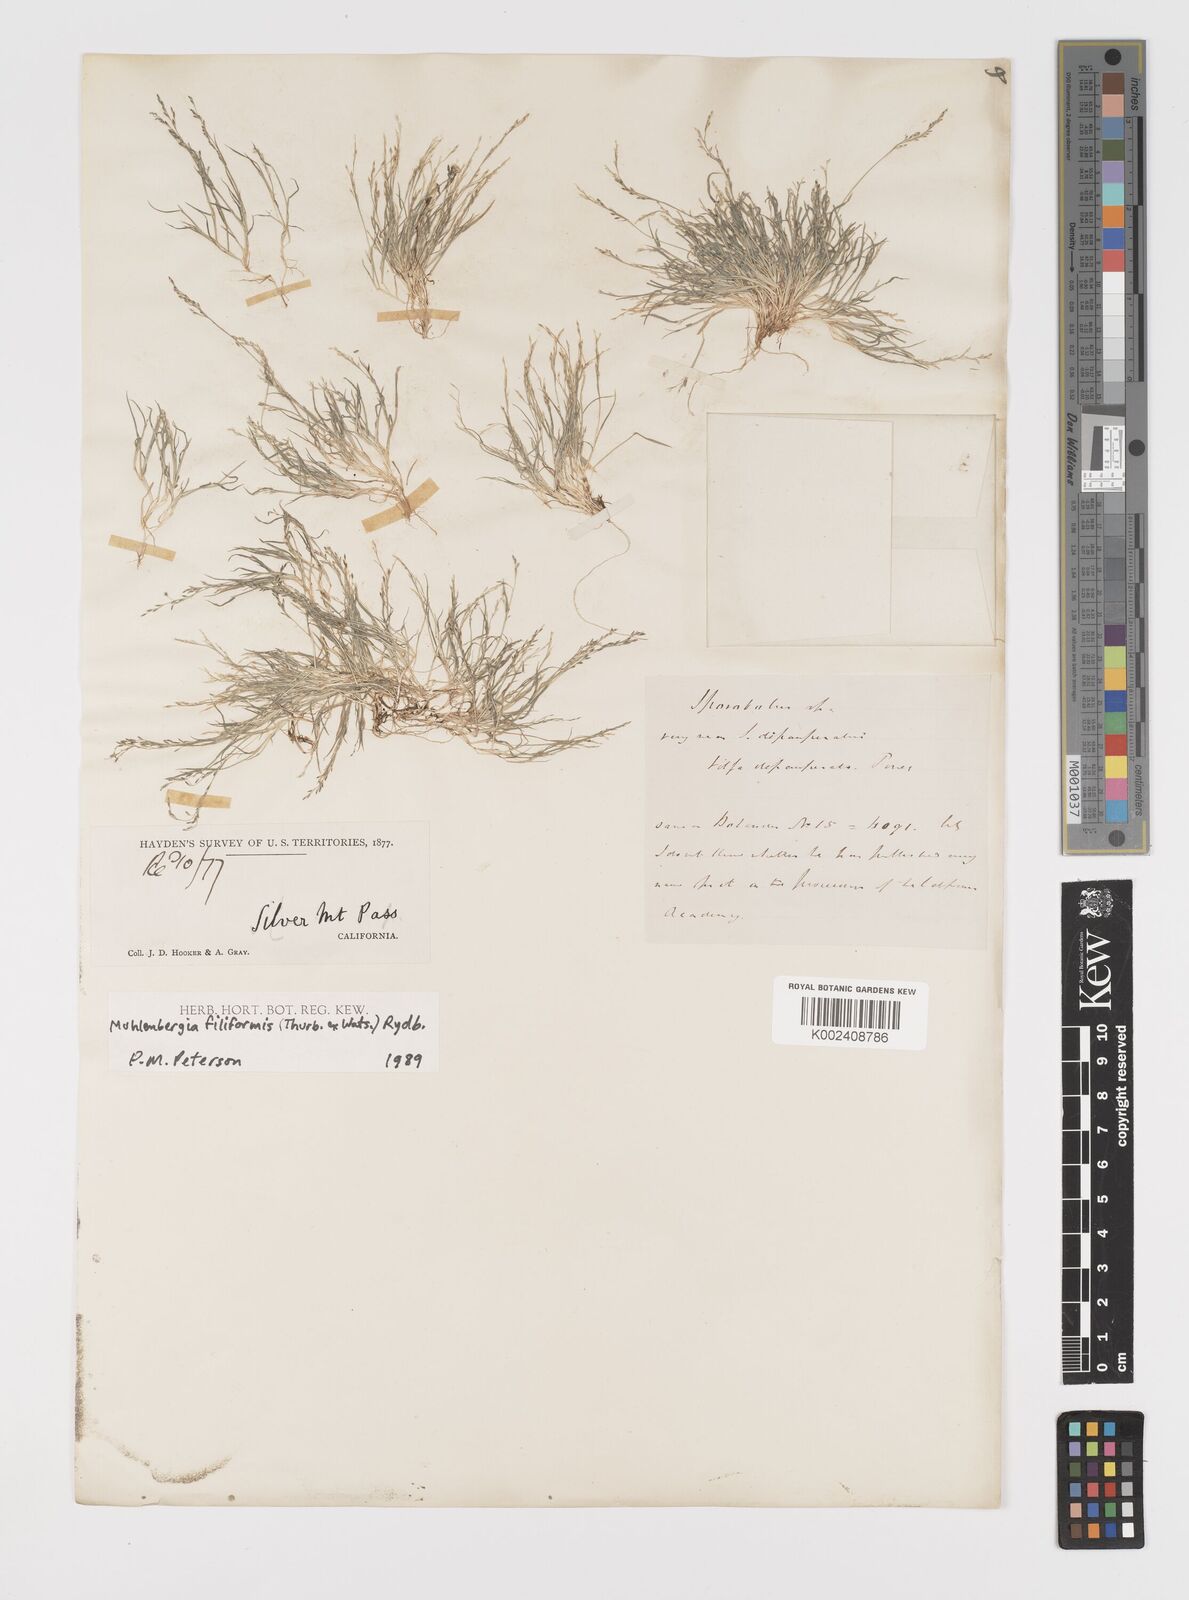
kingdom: Plantae
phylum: Tracheophyta
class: Liliopsida
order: Poales
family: Poaceae
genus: Leptochloa
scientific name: Leptochloa mucronata
